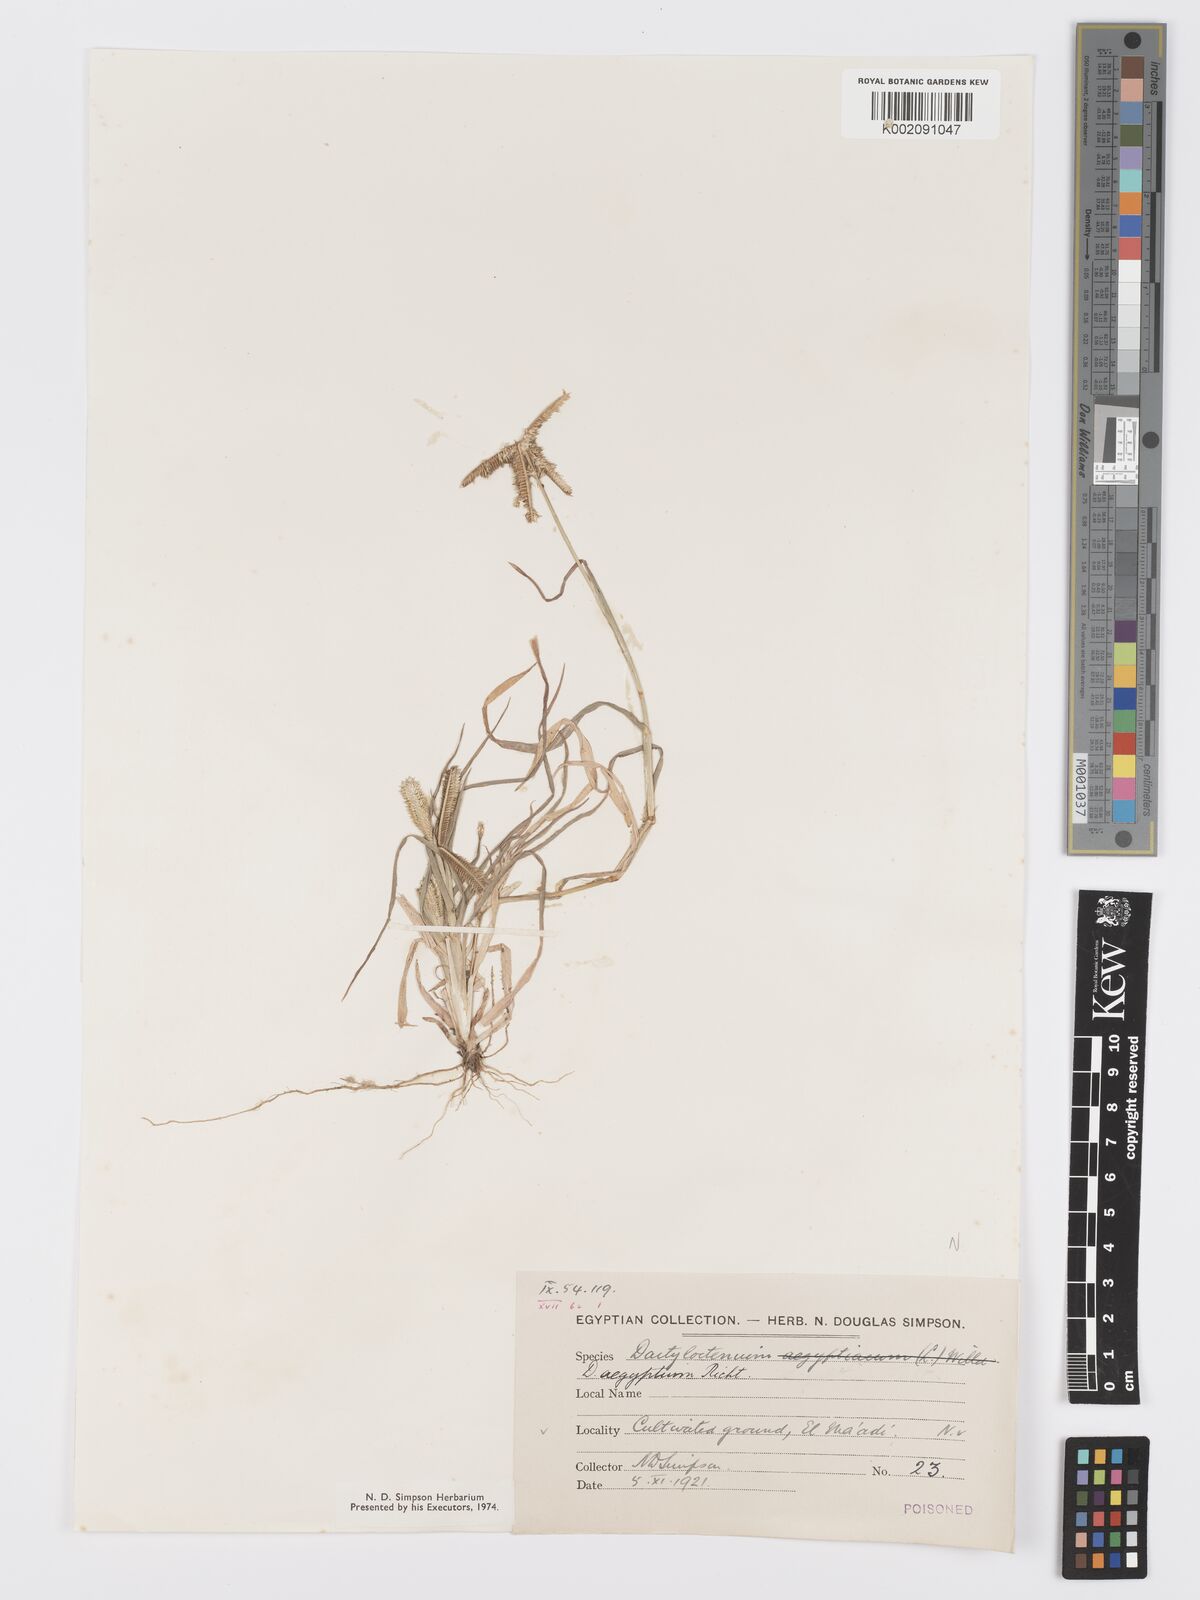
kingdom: Plantae
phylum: Tracheophyta
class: Liliopsida
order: Poales
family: Poaceae
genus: Dactyloctenium
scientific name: Dactyloctenium aegyptium
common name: Egyptian grass
